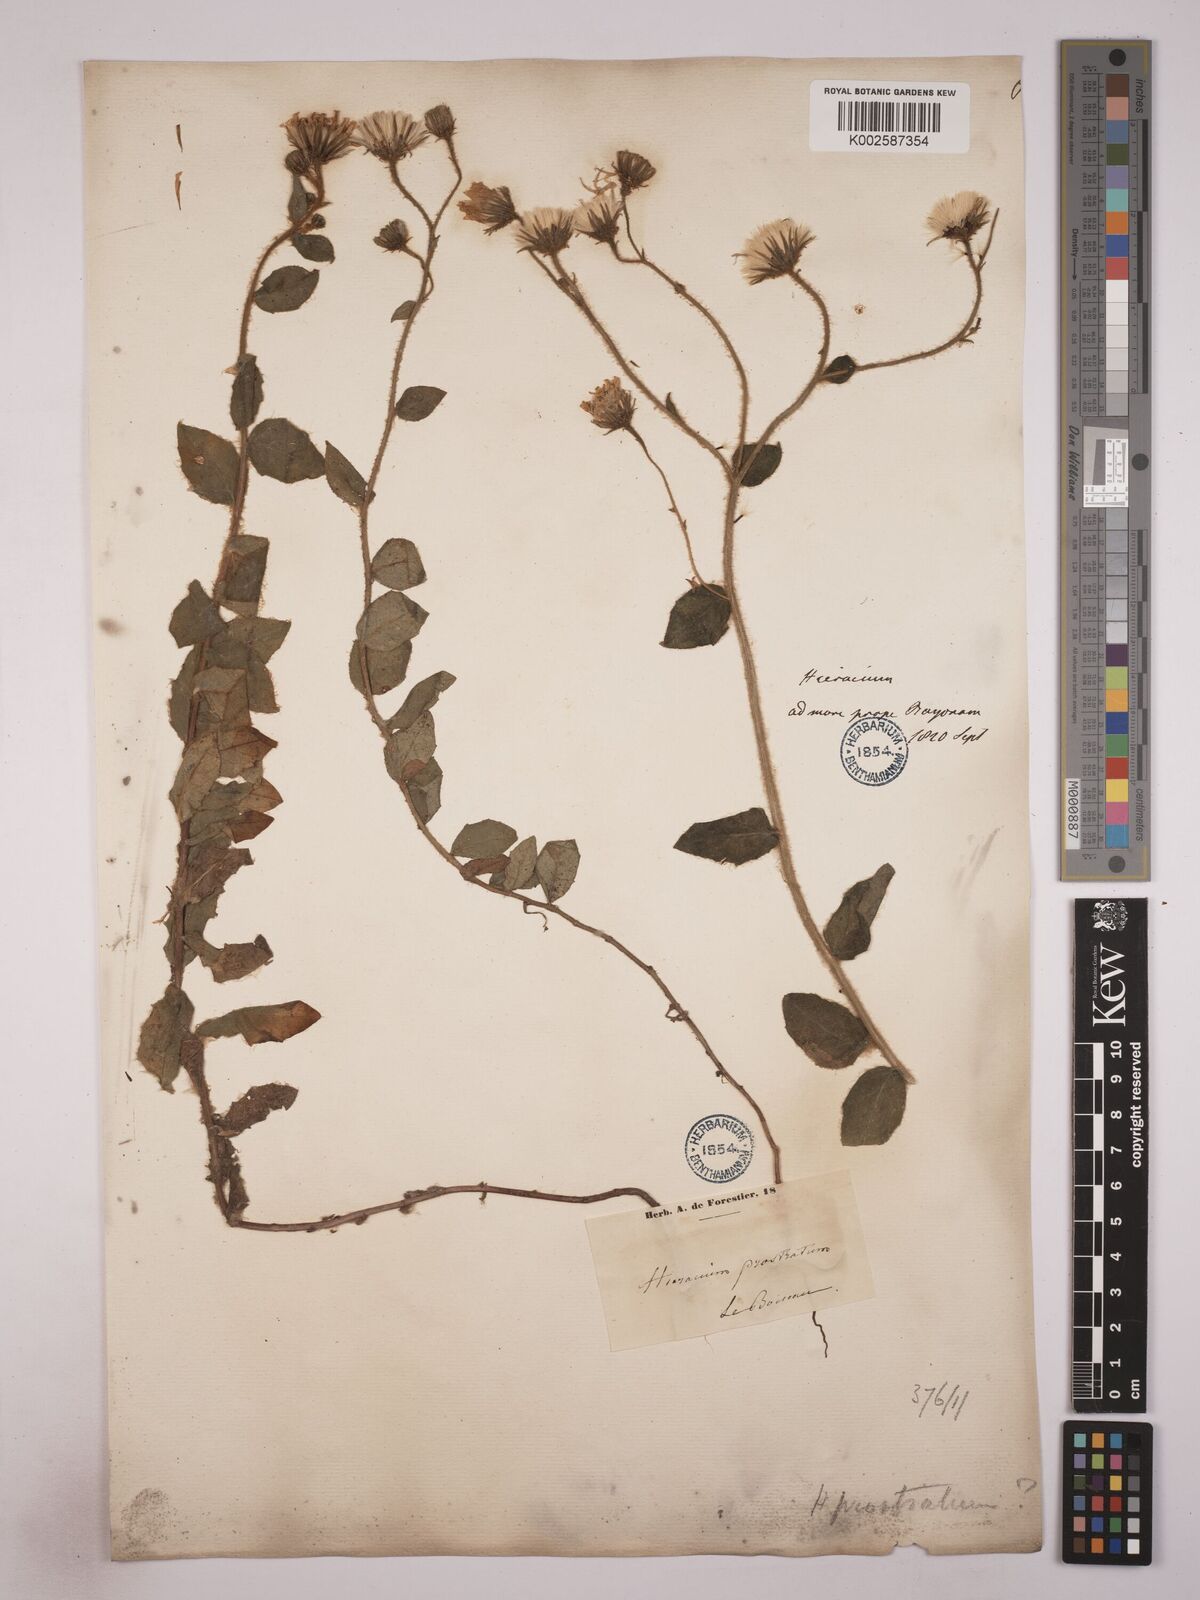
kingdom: Plantae
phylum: Tracheophyta
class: Magnoliopsida
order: Asterales
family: Asteraceae
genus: Hieracium
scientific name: Hieracium prostratum
